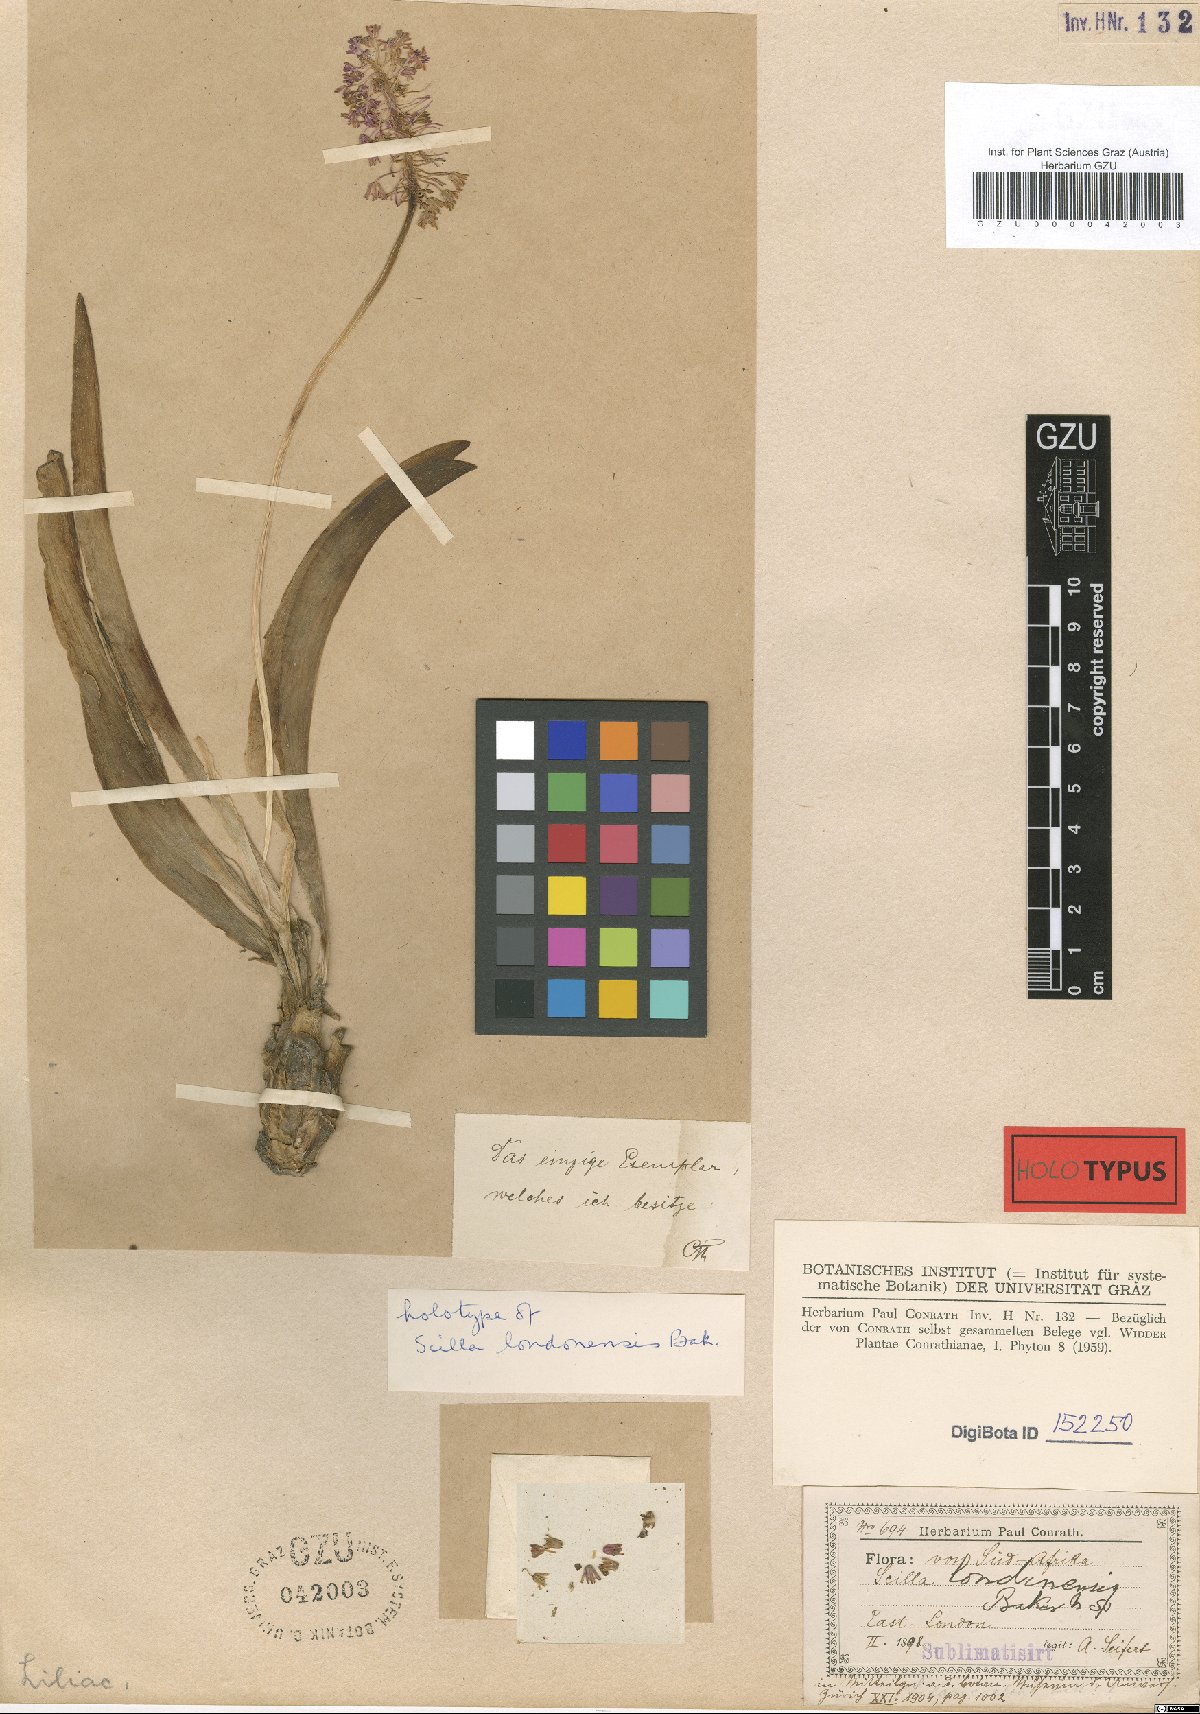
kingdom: Plantae
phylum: Tracheophyta
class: Liliopsida
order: Asparagales
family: Asparagaceae
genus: Ledebouria
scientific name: Ledebouria cooperi
